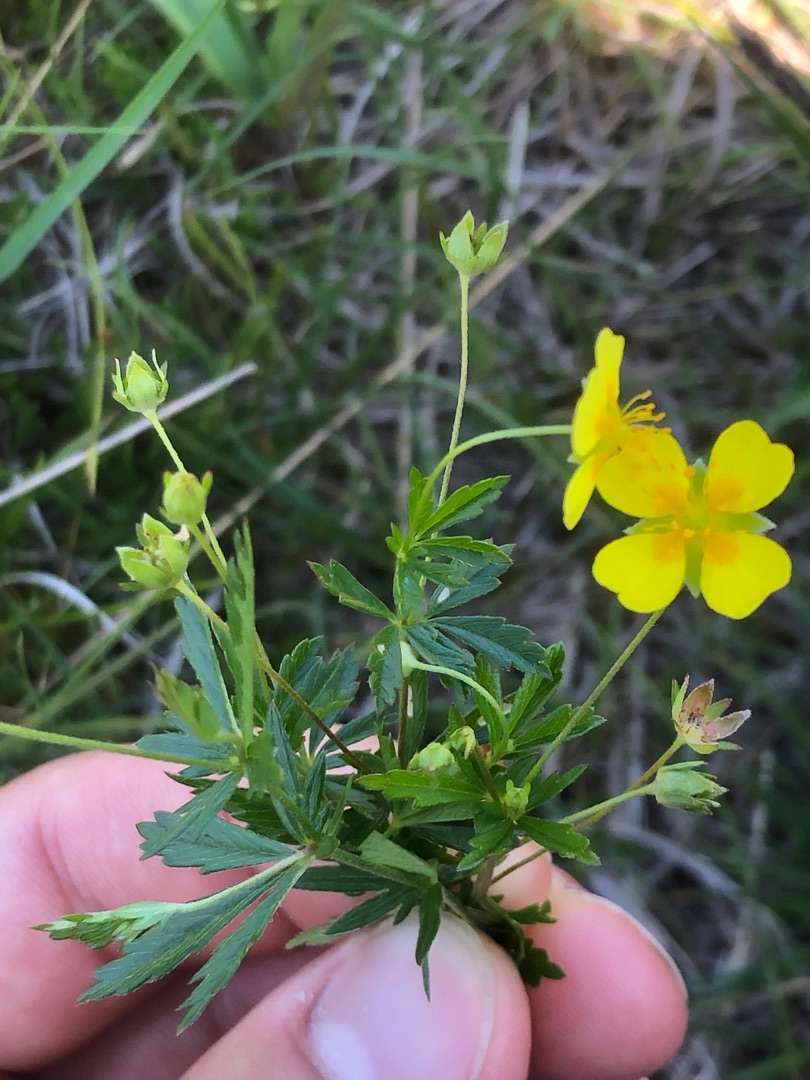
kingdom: Plantae
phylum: Tracheophyta
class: Magnoliopsida
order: Rosales
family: Rosaceae
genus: Potentilla
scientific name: Potentilla erecta
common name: Tormentil
